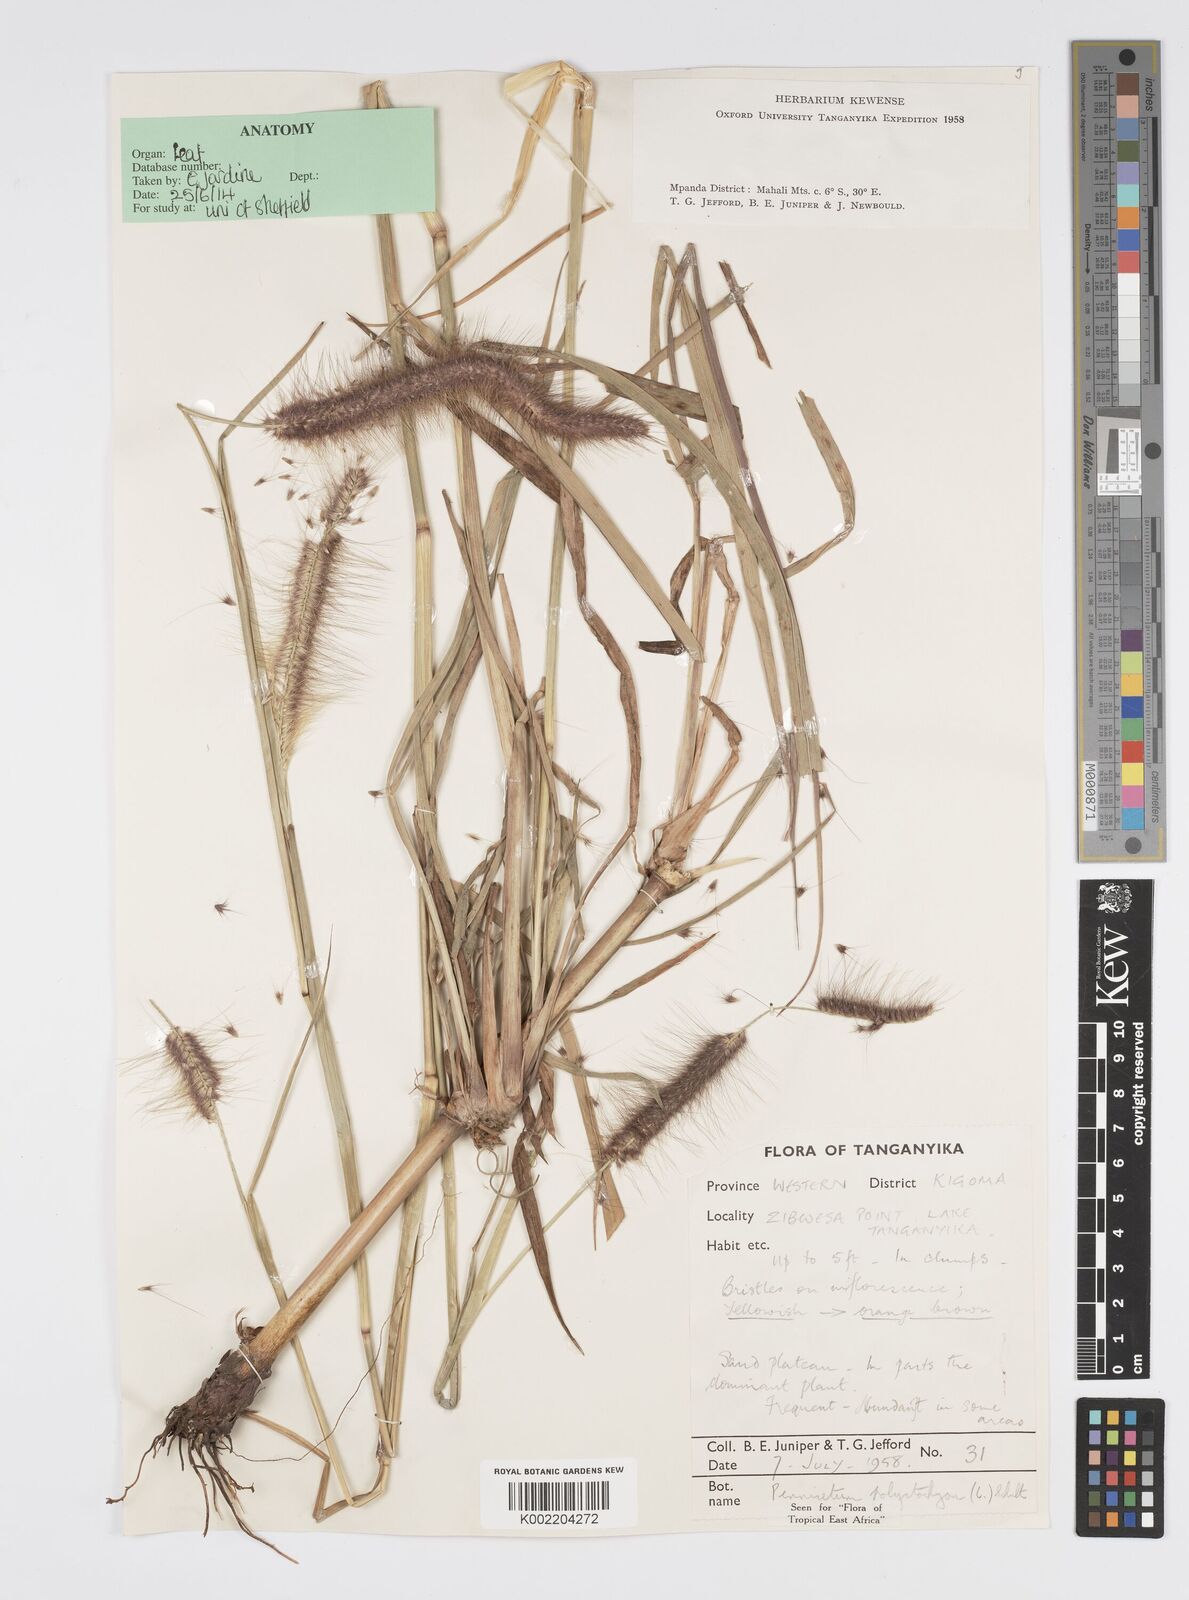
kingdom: Plantae
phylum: Tracheophyta
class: Liliopsida
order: Poales
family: Poaceae
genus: Setaria
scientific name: Setaria parviflora
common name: Knotroot bristle-grass
